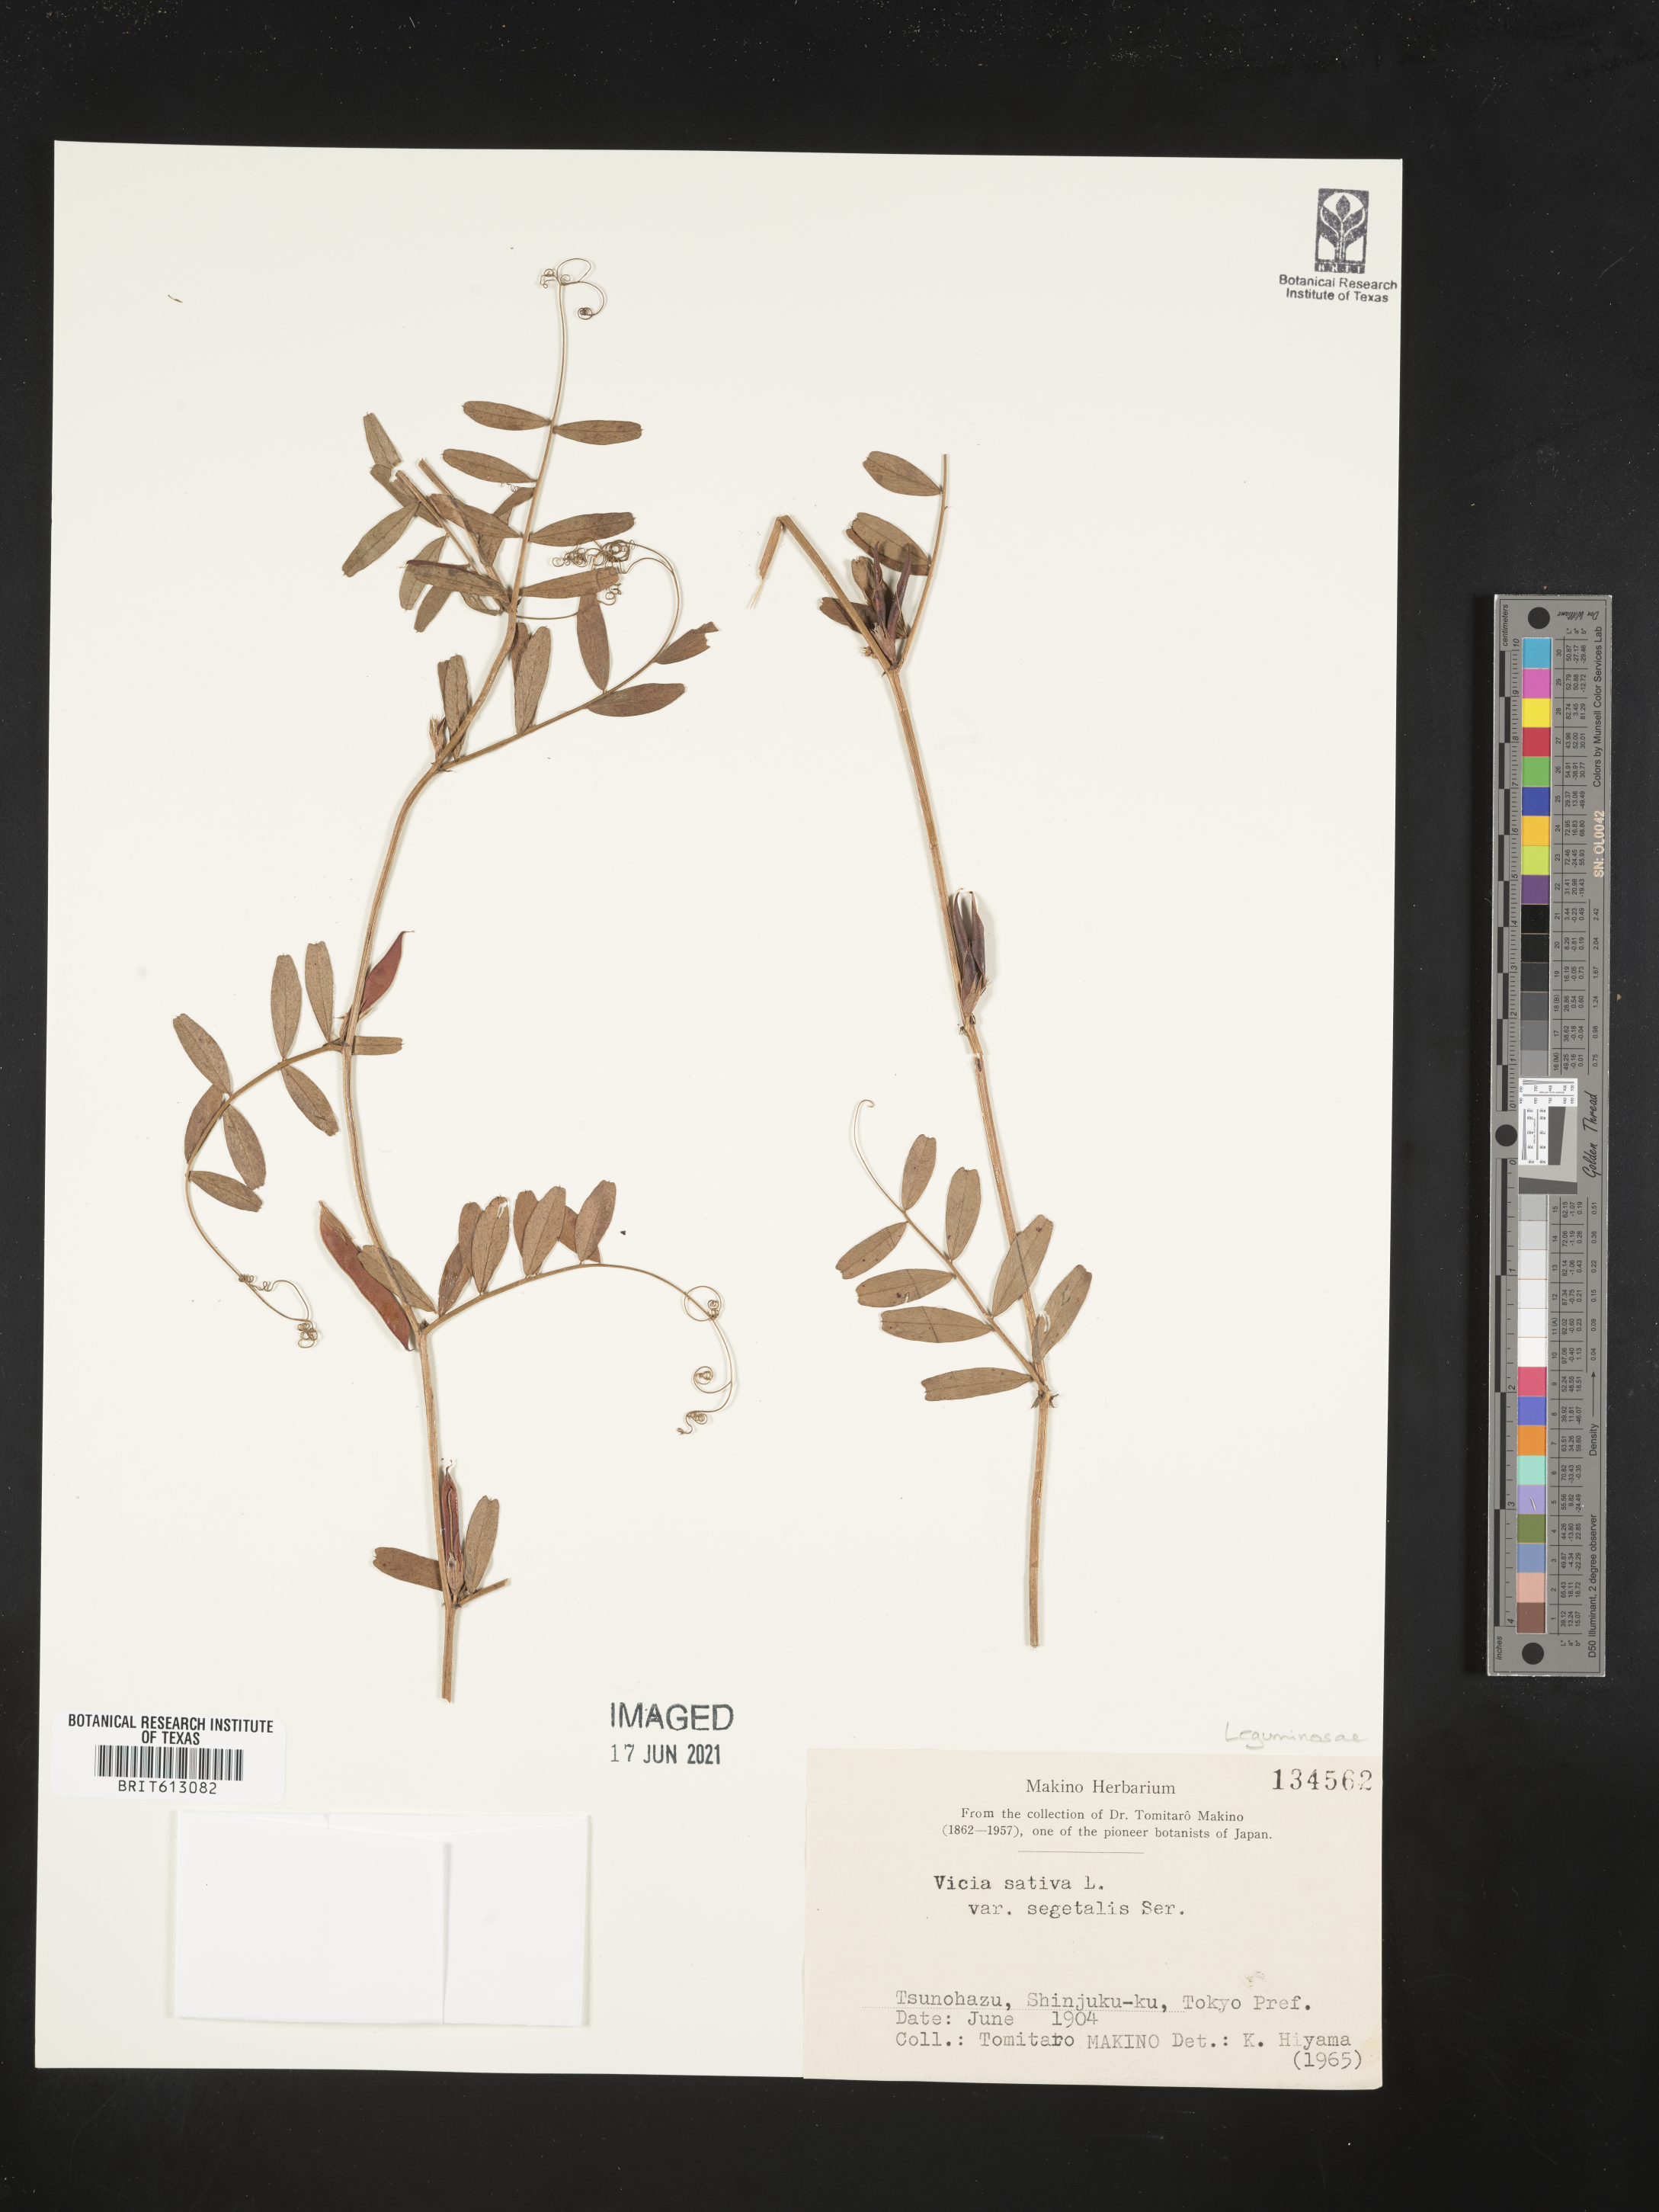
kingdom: Plantae
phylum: Tracheophyta
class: Magnoliopsida
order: Fabales
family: Fabaceae
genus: Vicia
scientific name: Vicia sativa
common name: Garden vetch
